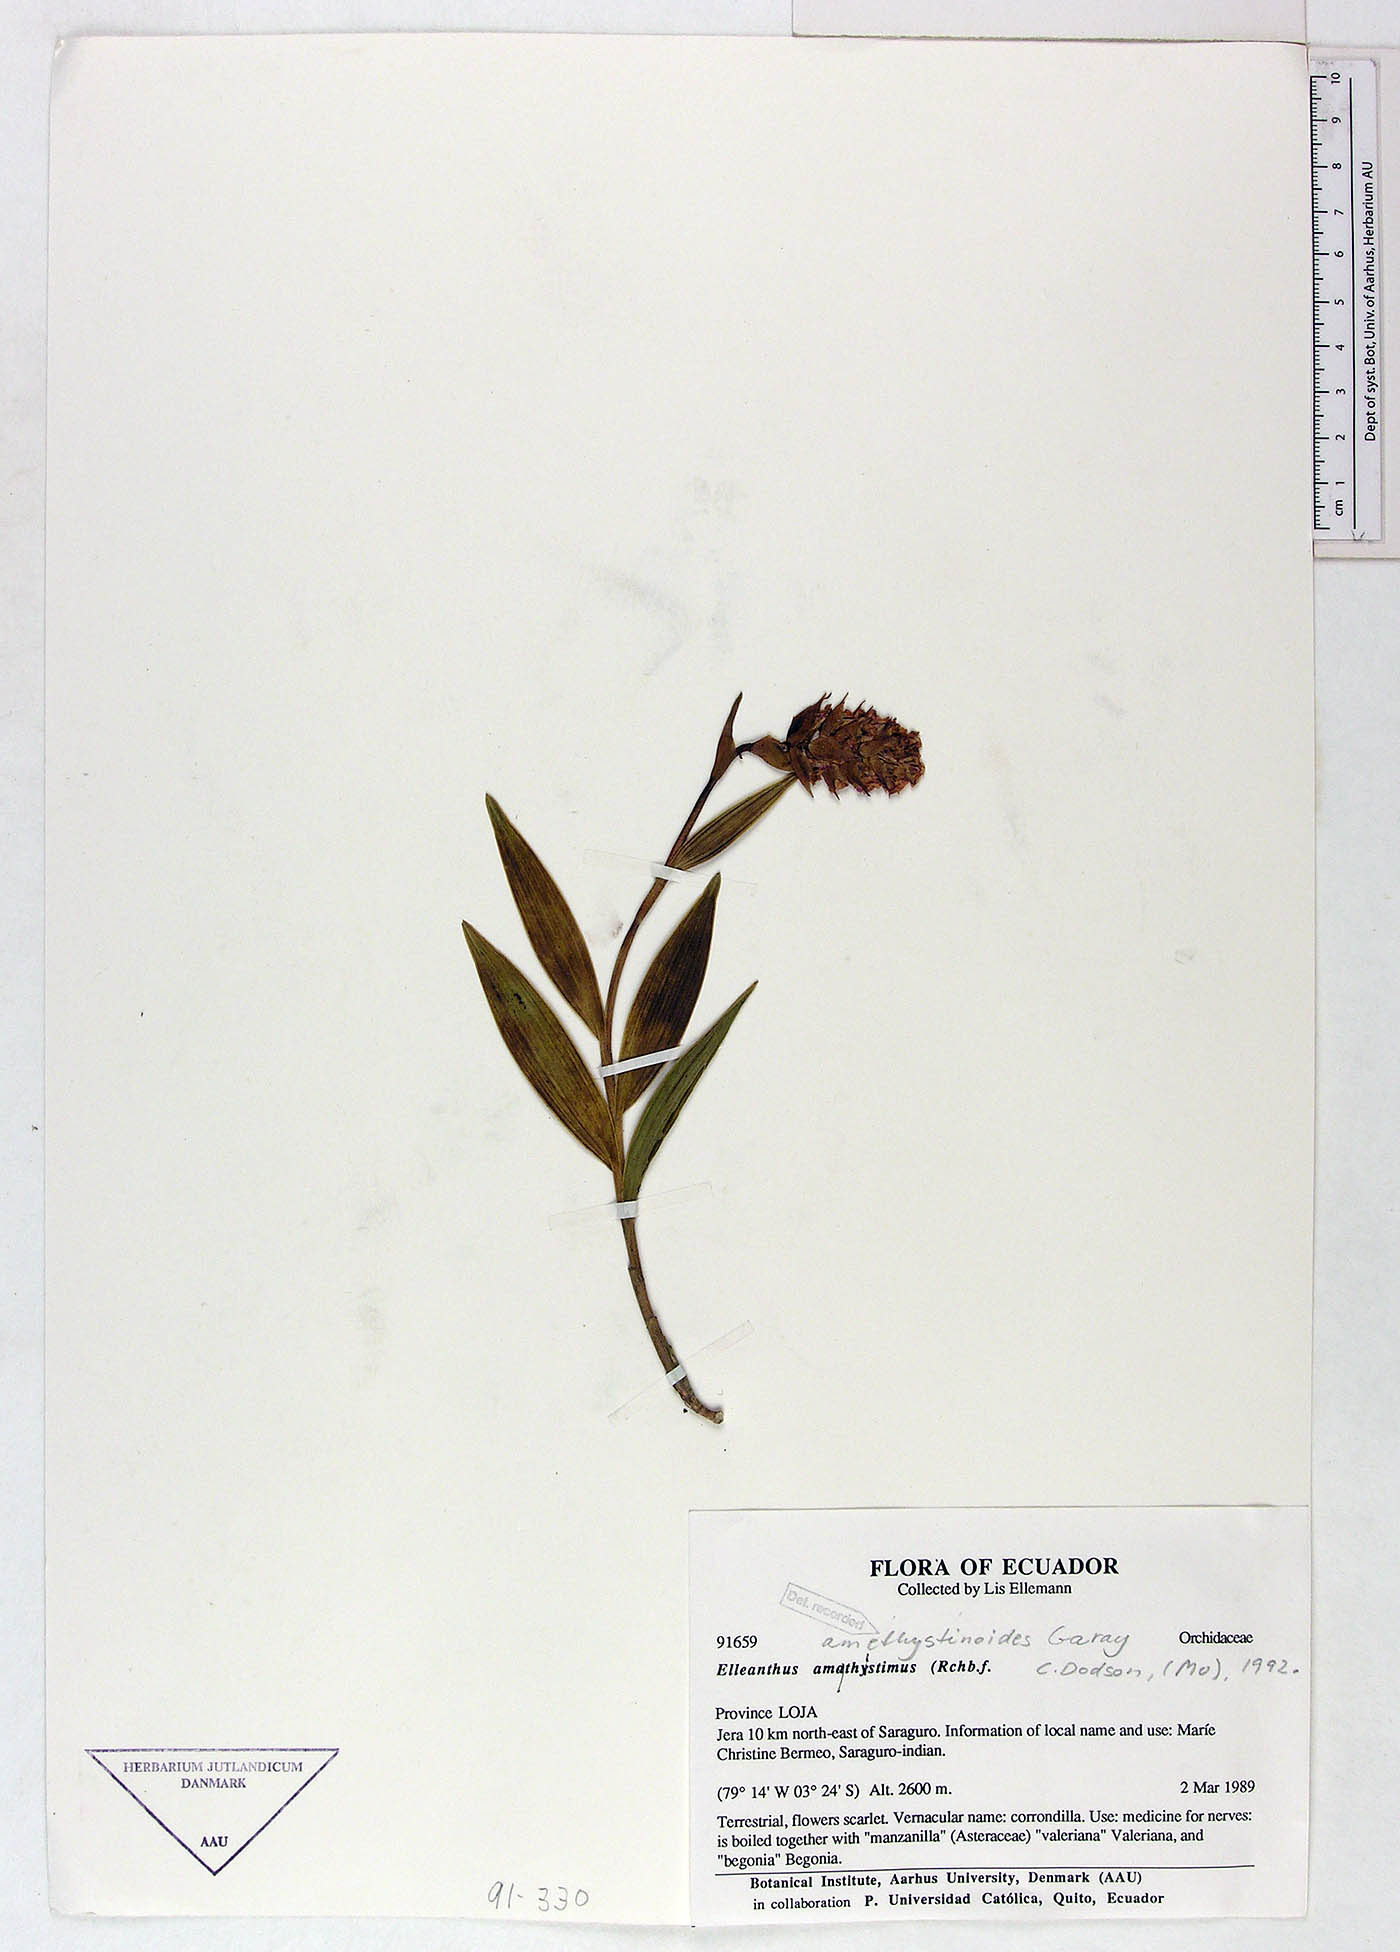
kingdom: Plantae
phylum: Tracheophyta
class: Liliopsida
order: Asparagales
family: Orchidaceae
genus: Elleanthus
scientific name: Elleanthus amethystinoides
